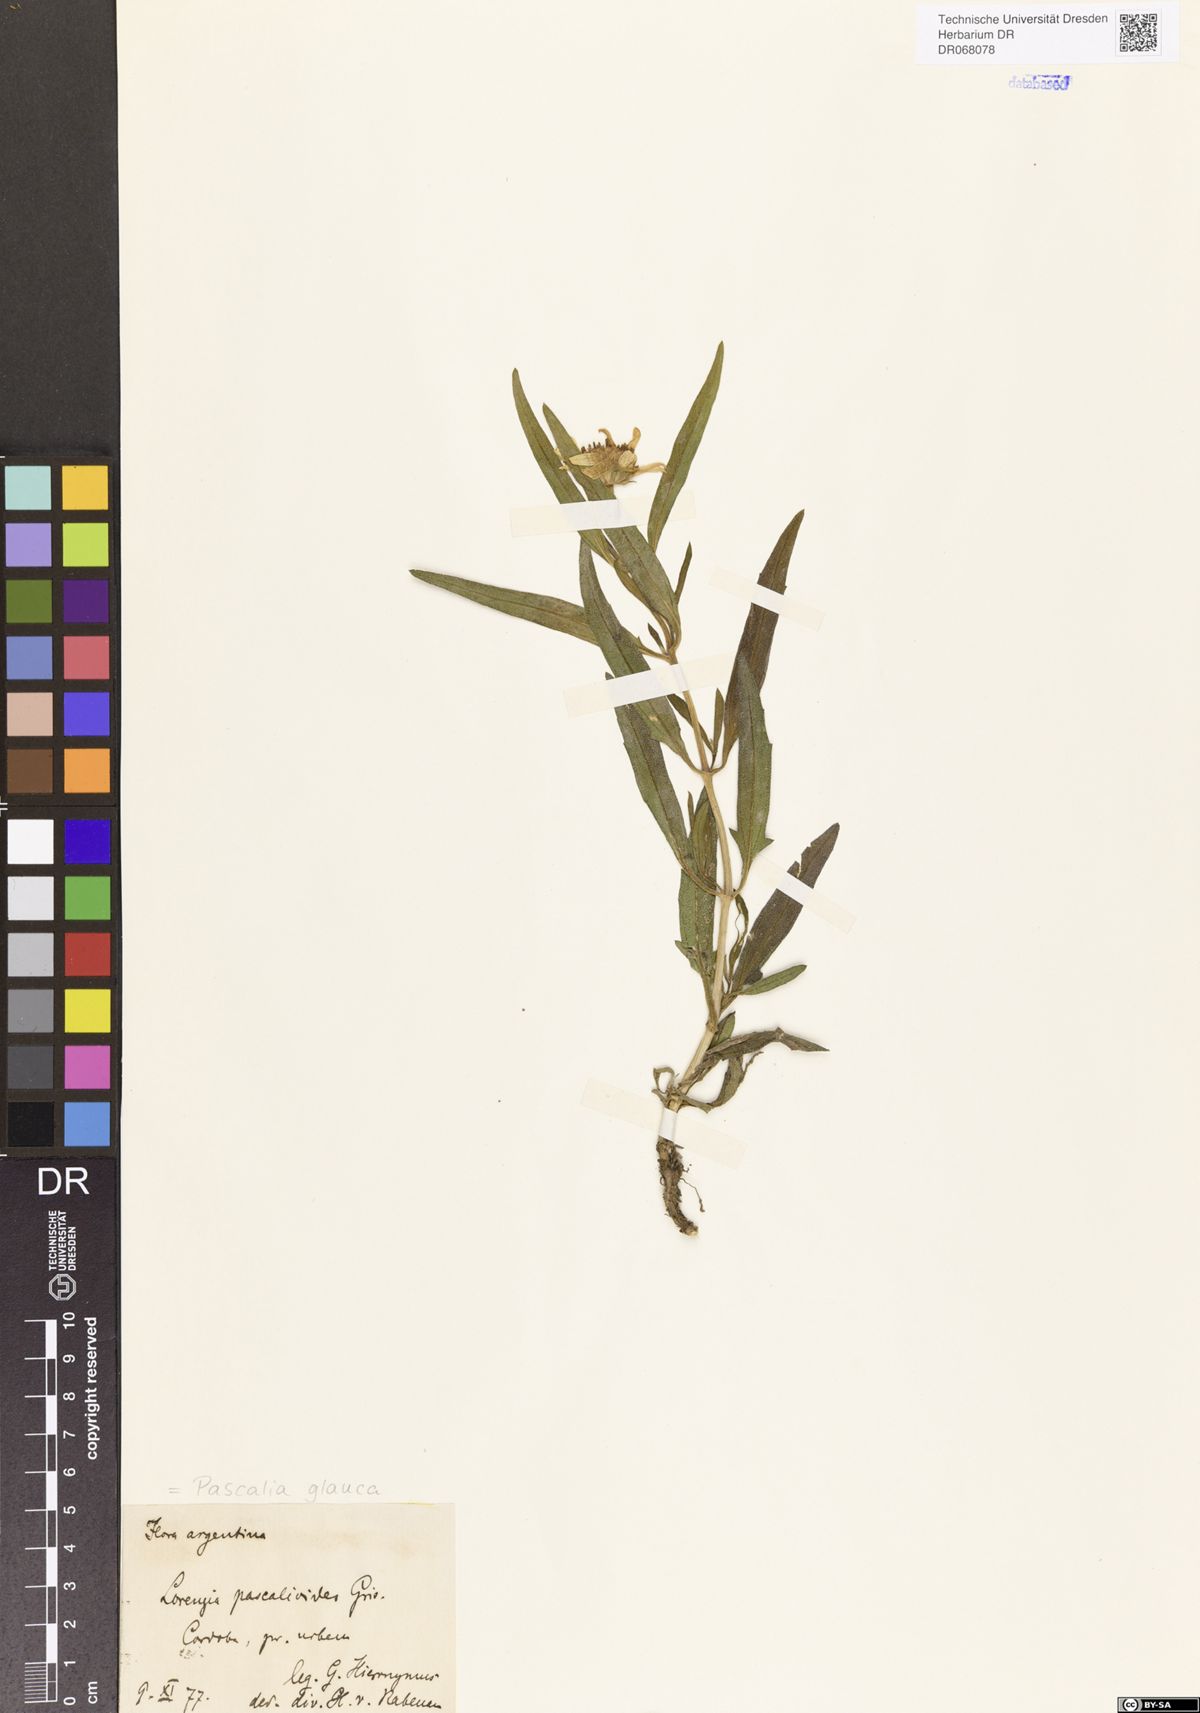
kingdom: Plantae
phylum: Tracheophyta
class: Magnoliopsida
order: Asterales
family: Asteraceae
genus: Pascalia
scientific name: Pascalia glauca
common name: Beach creeping oxeye
